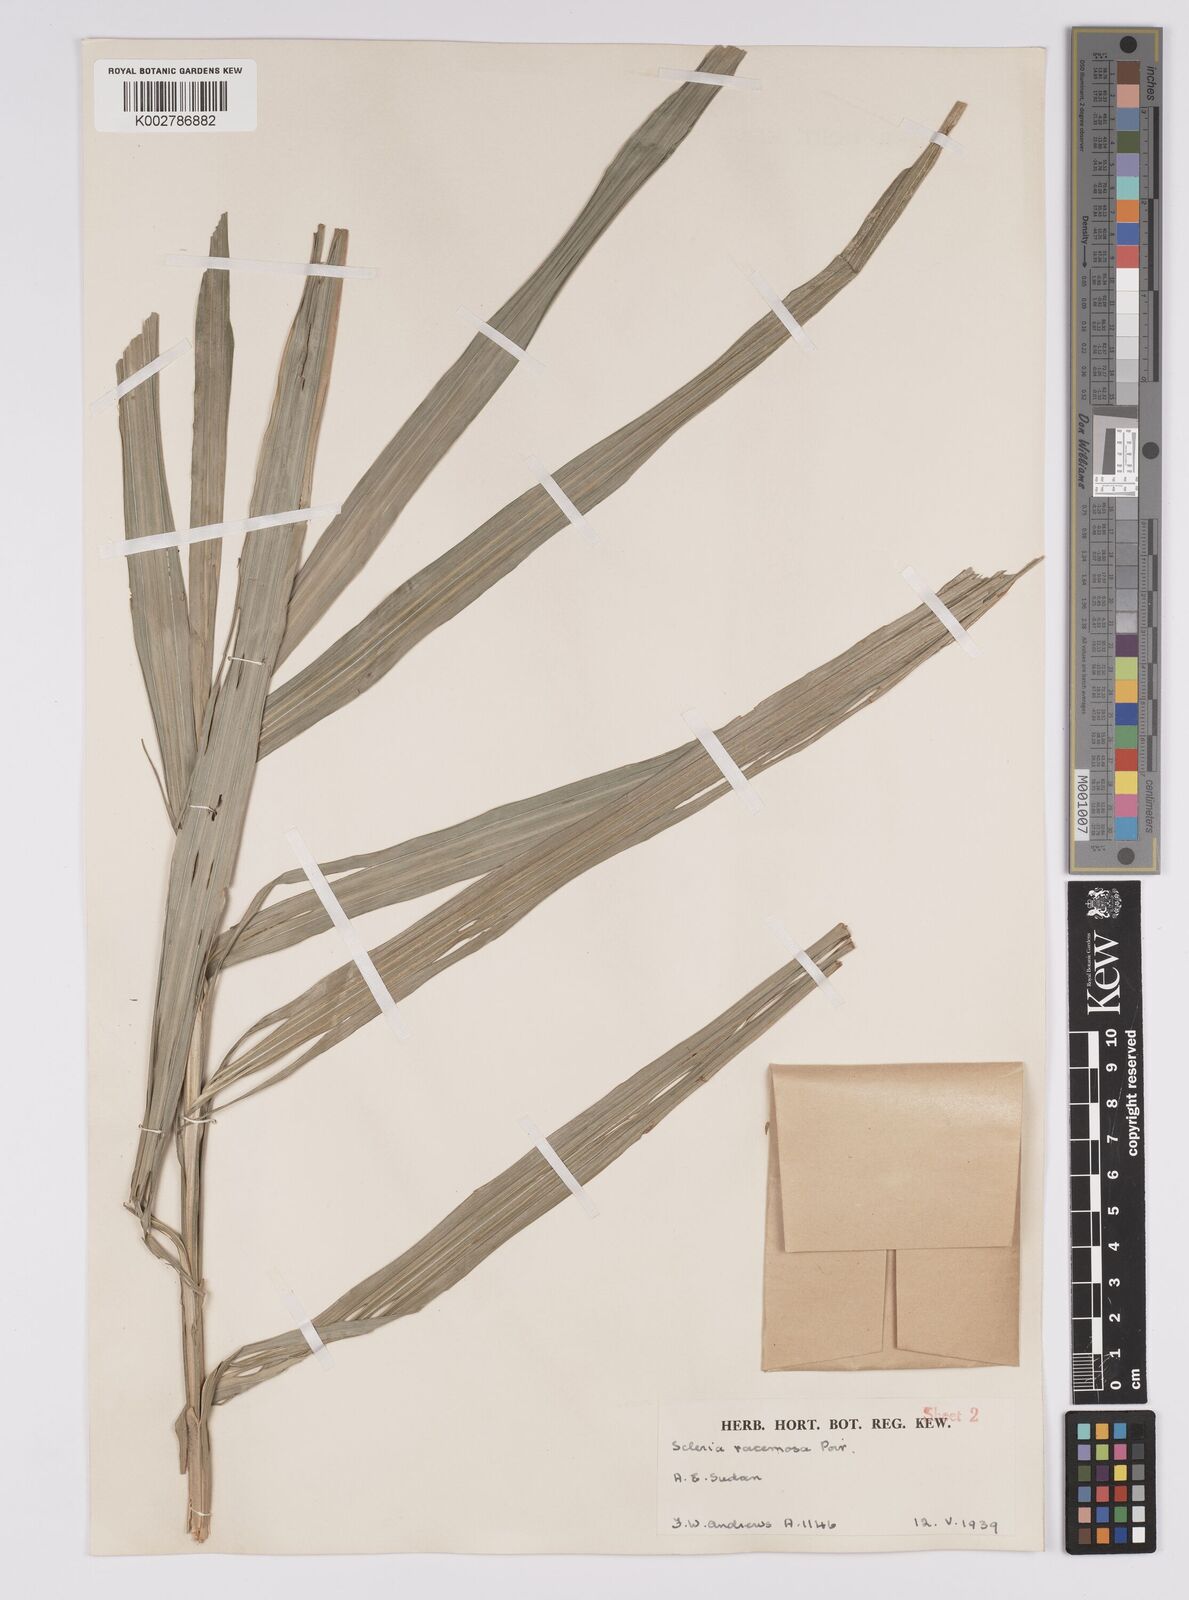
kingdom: Plantae
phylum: Tracheophyta
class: Liliopsida
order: Poales
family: Cyperaceae
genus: Scleria
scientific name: Scleria racemosa
